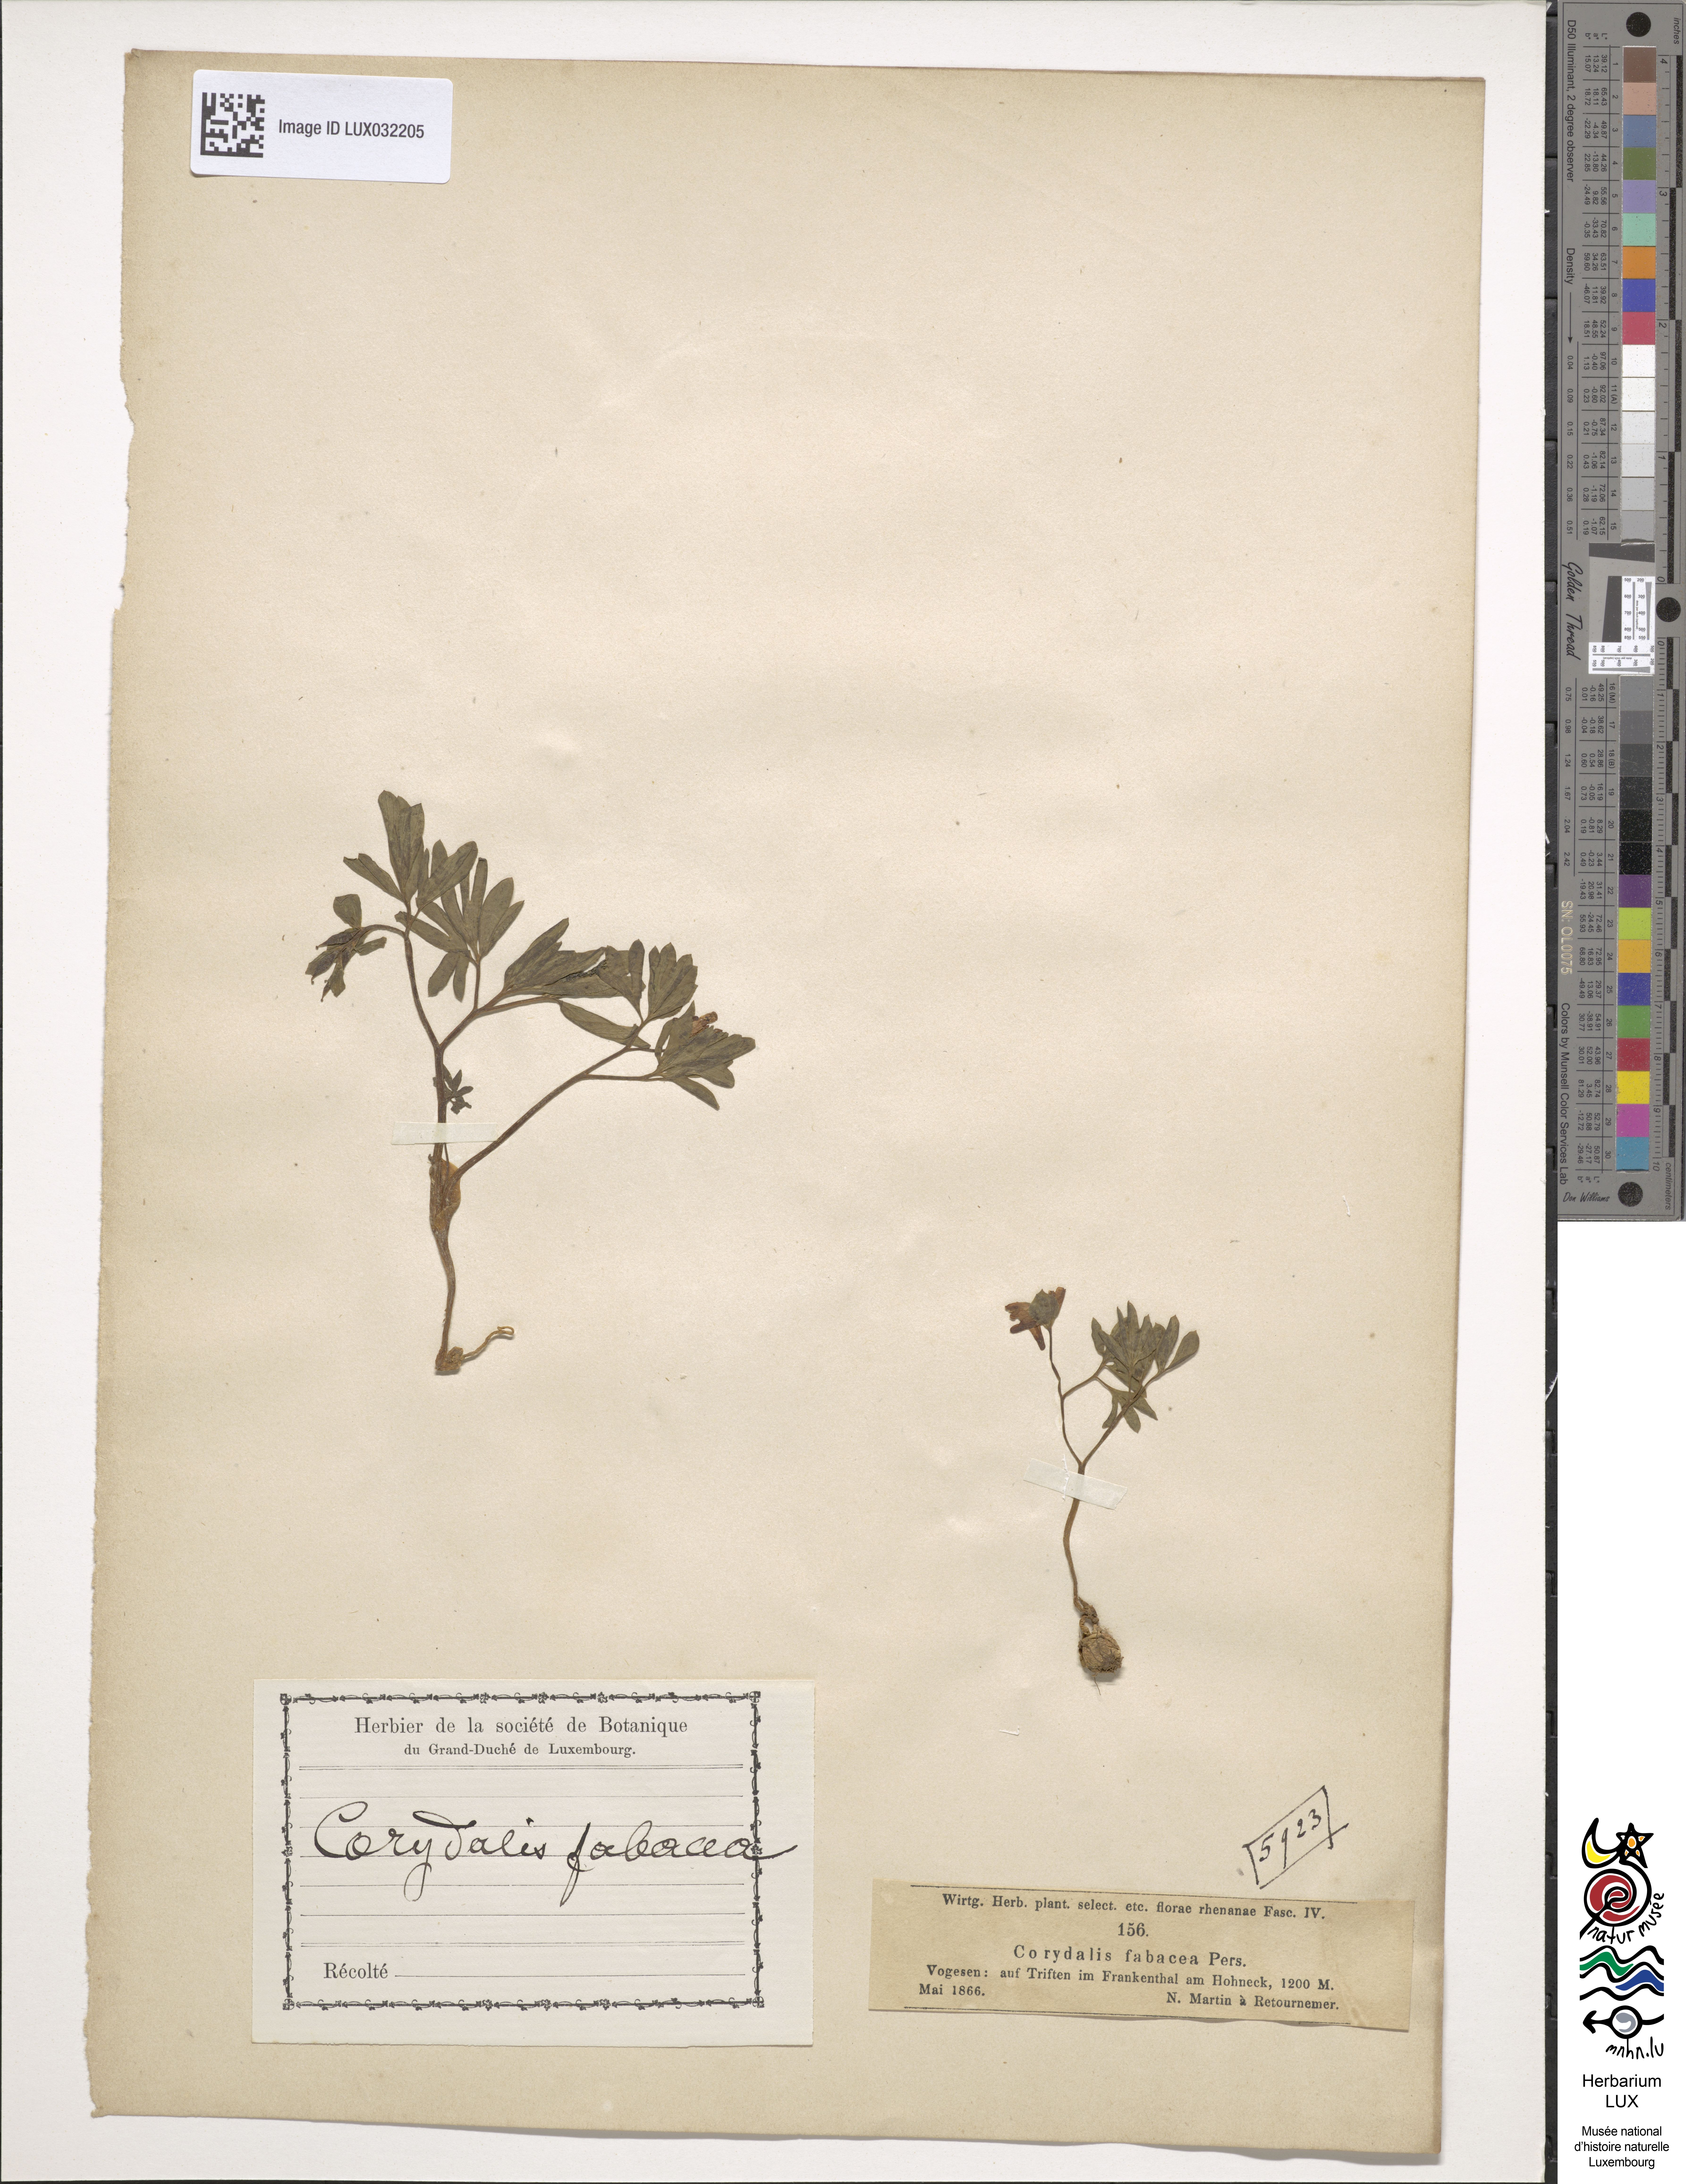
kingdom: Plantae
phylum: Tracheophyta
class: Magnoliopsida
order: Ranunculales
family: Papaveraceae
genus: Corydalis
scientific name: Corydalis intermedia
